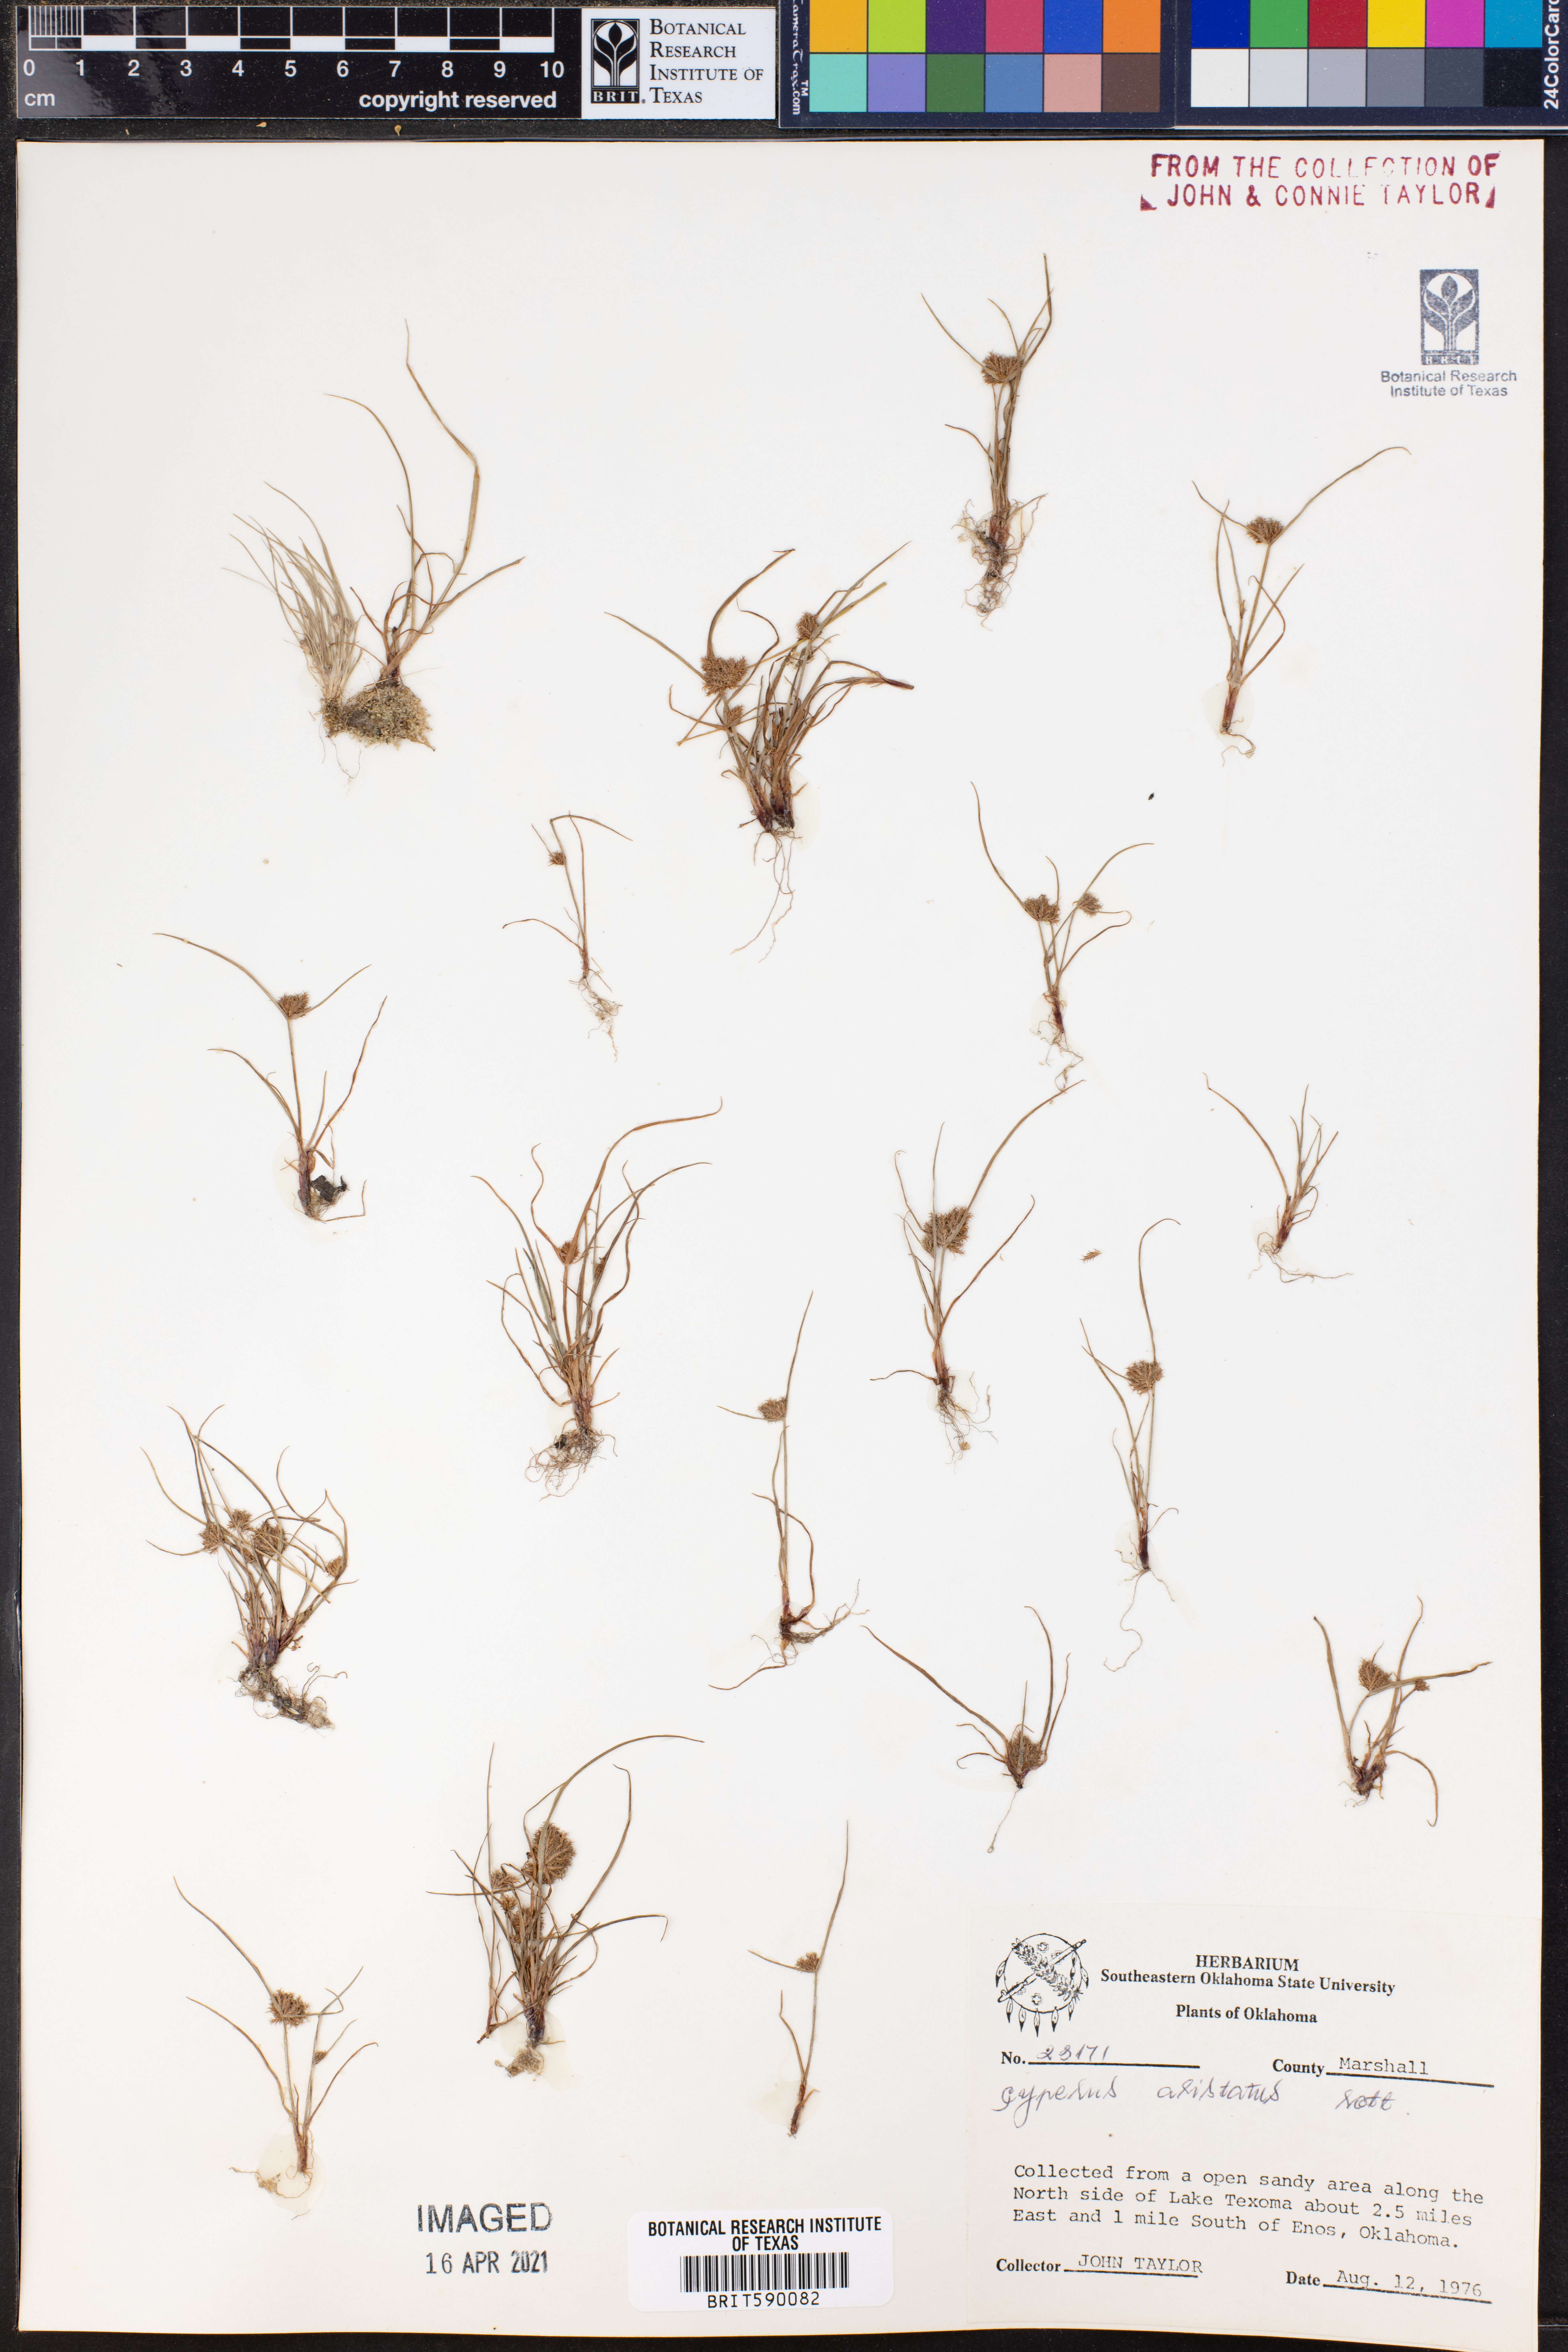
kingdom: Plantae
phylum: Tracheophyta
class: Liliopsida
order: Poales
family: Cyperaceae
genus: Cyperus
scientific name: Cyperus squarrosus
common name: Awned cyperus
